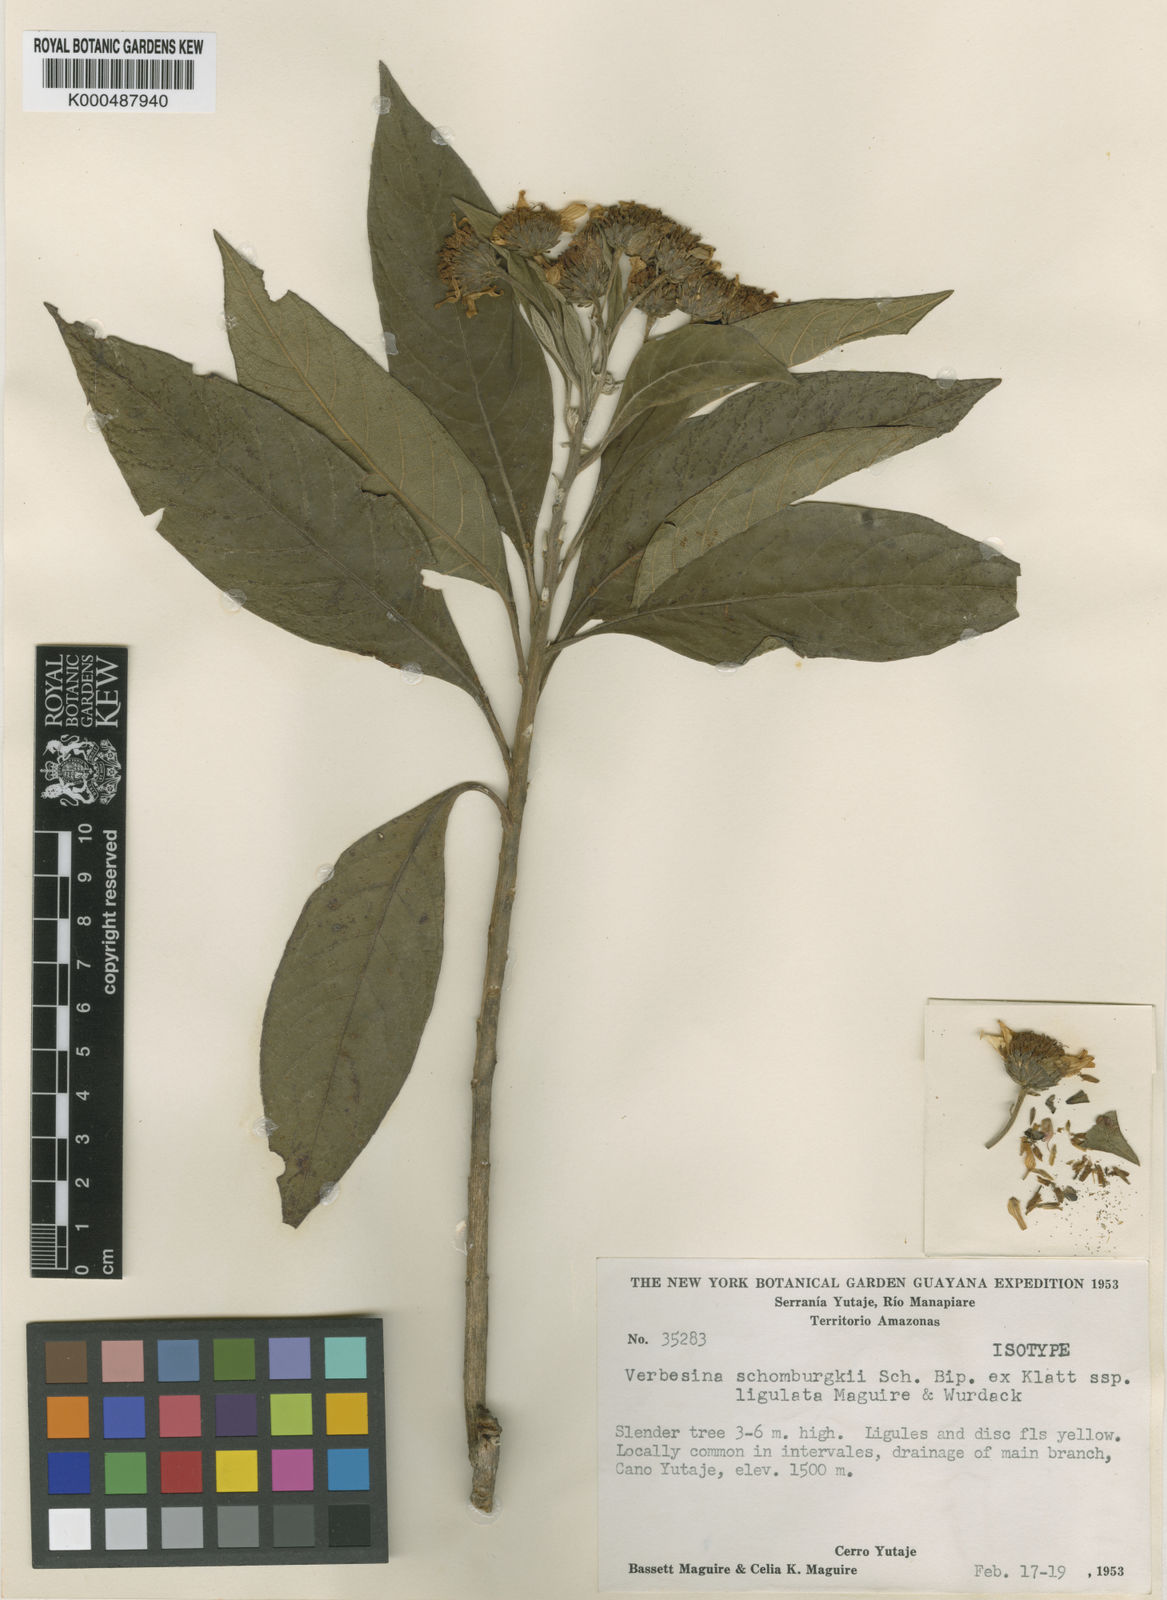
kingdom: Plantae
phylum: Tracheophyta
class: Magnoliopsida
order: Asterales
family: Asteraceae
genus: Verbesina
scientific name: Verbesina ligulata
